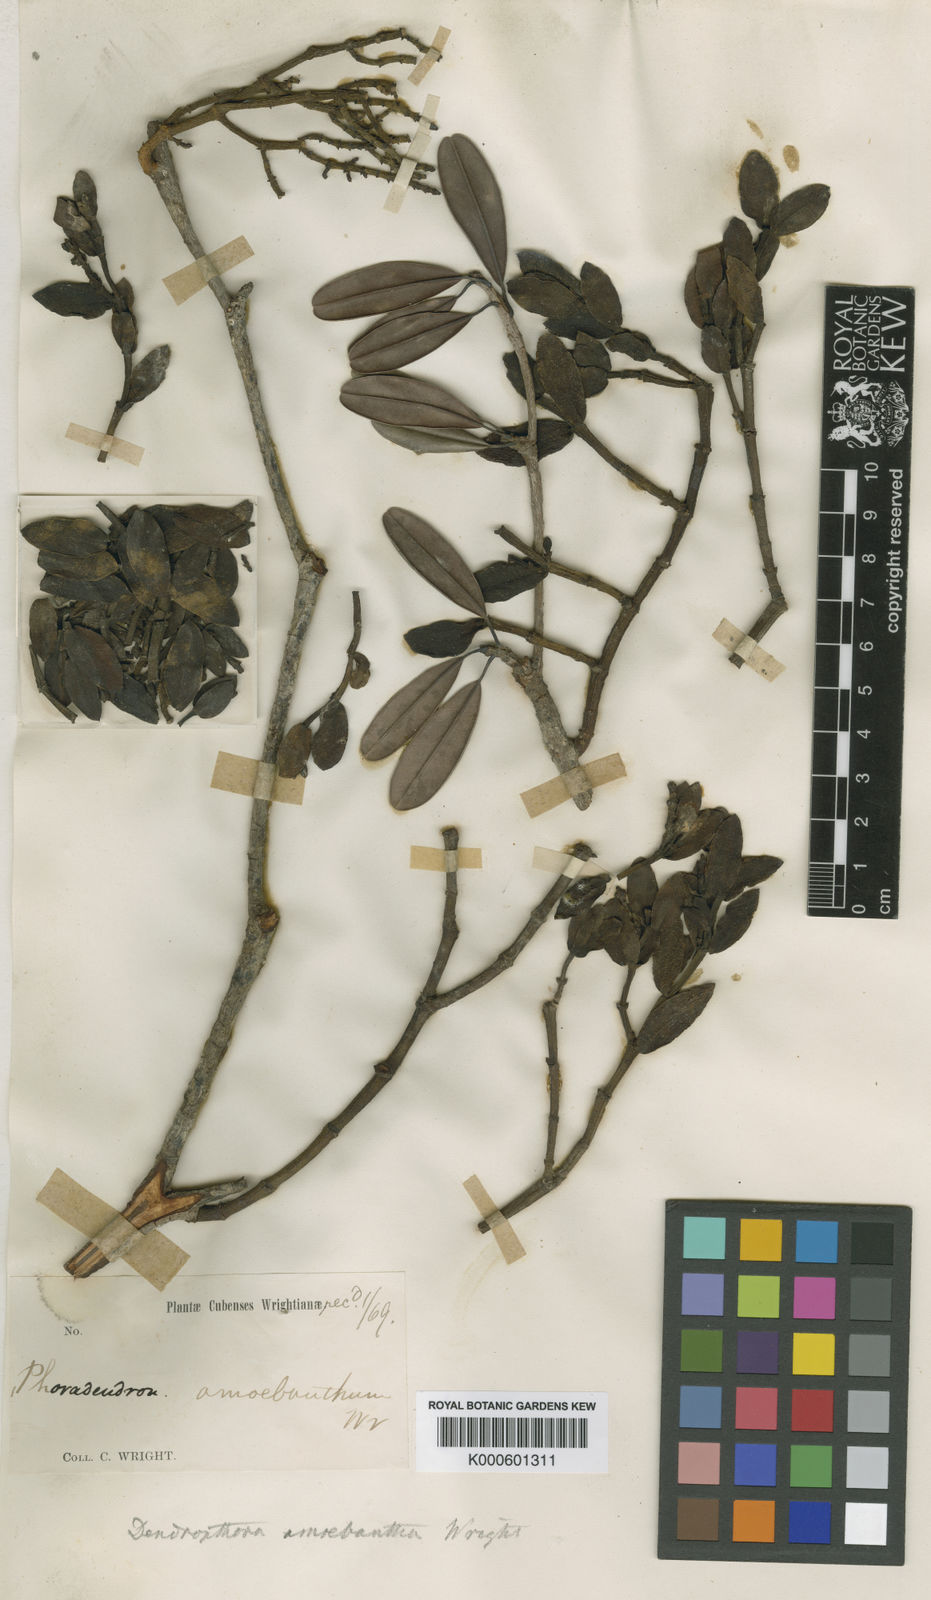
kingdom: Plantae
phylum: Tracheophyta
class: Magnoliopsida
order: Santalales
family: Viscaceae
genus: Dendrophthora
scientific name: Dendrophthora sessilifolia
